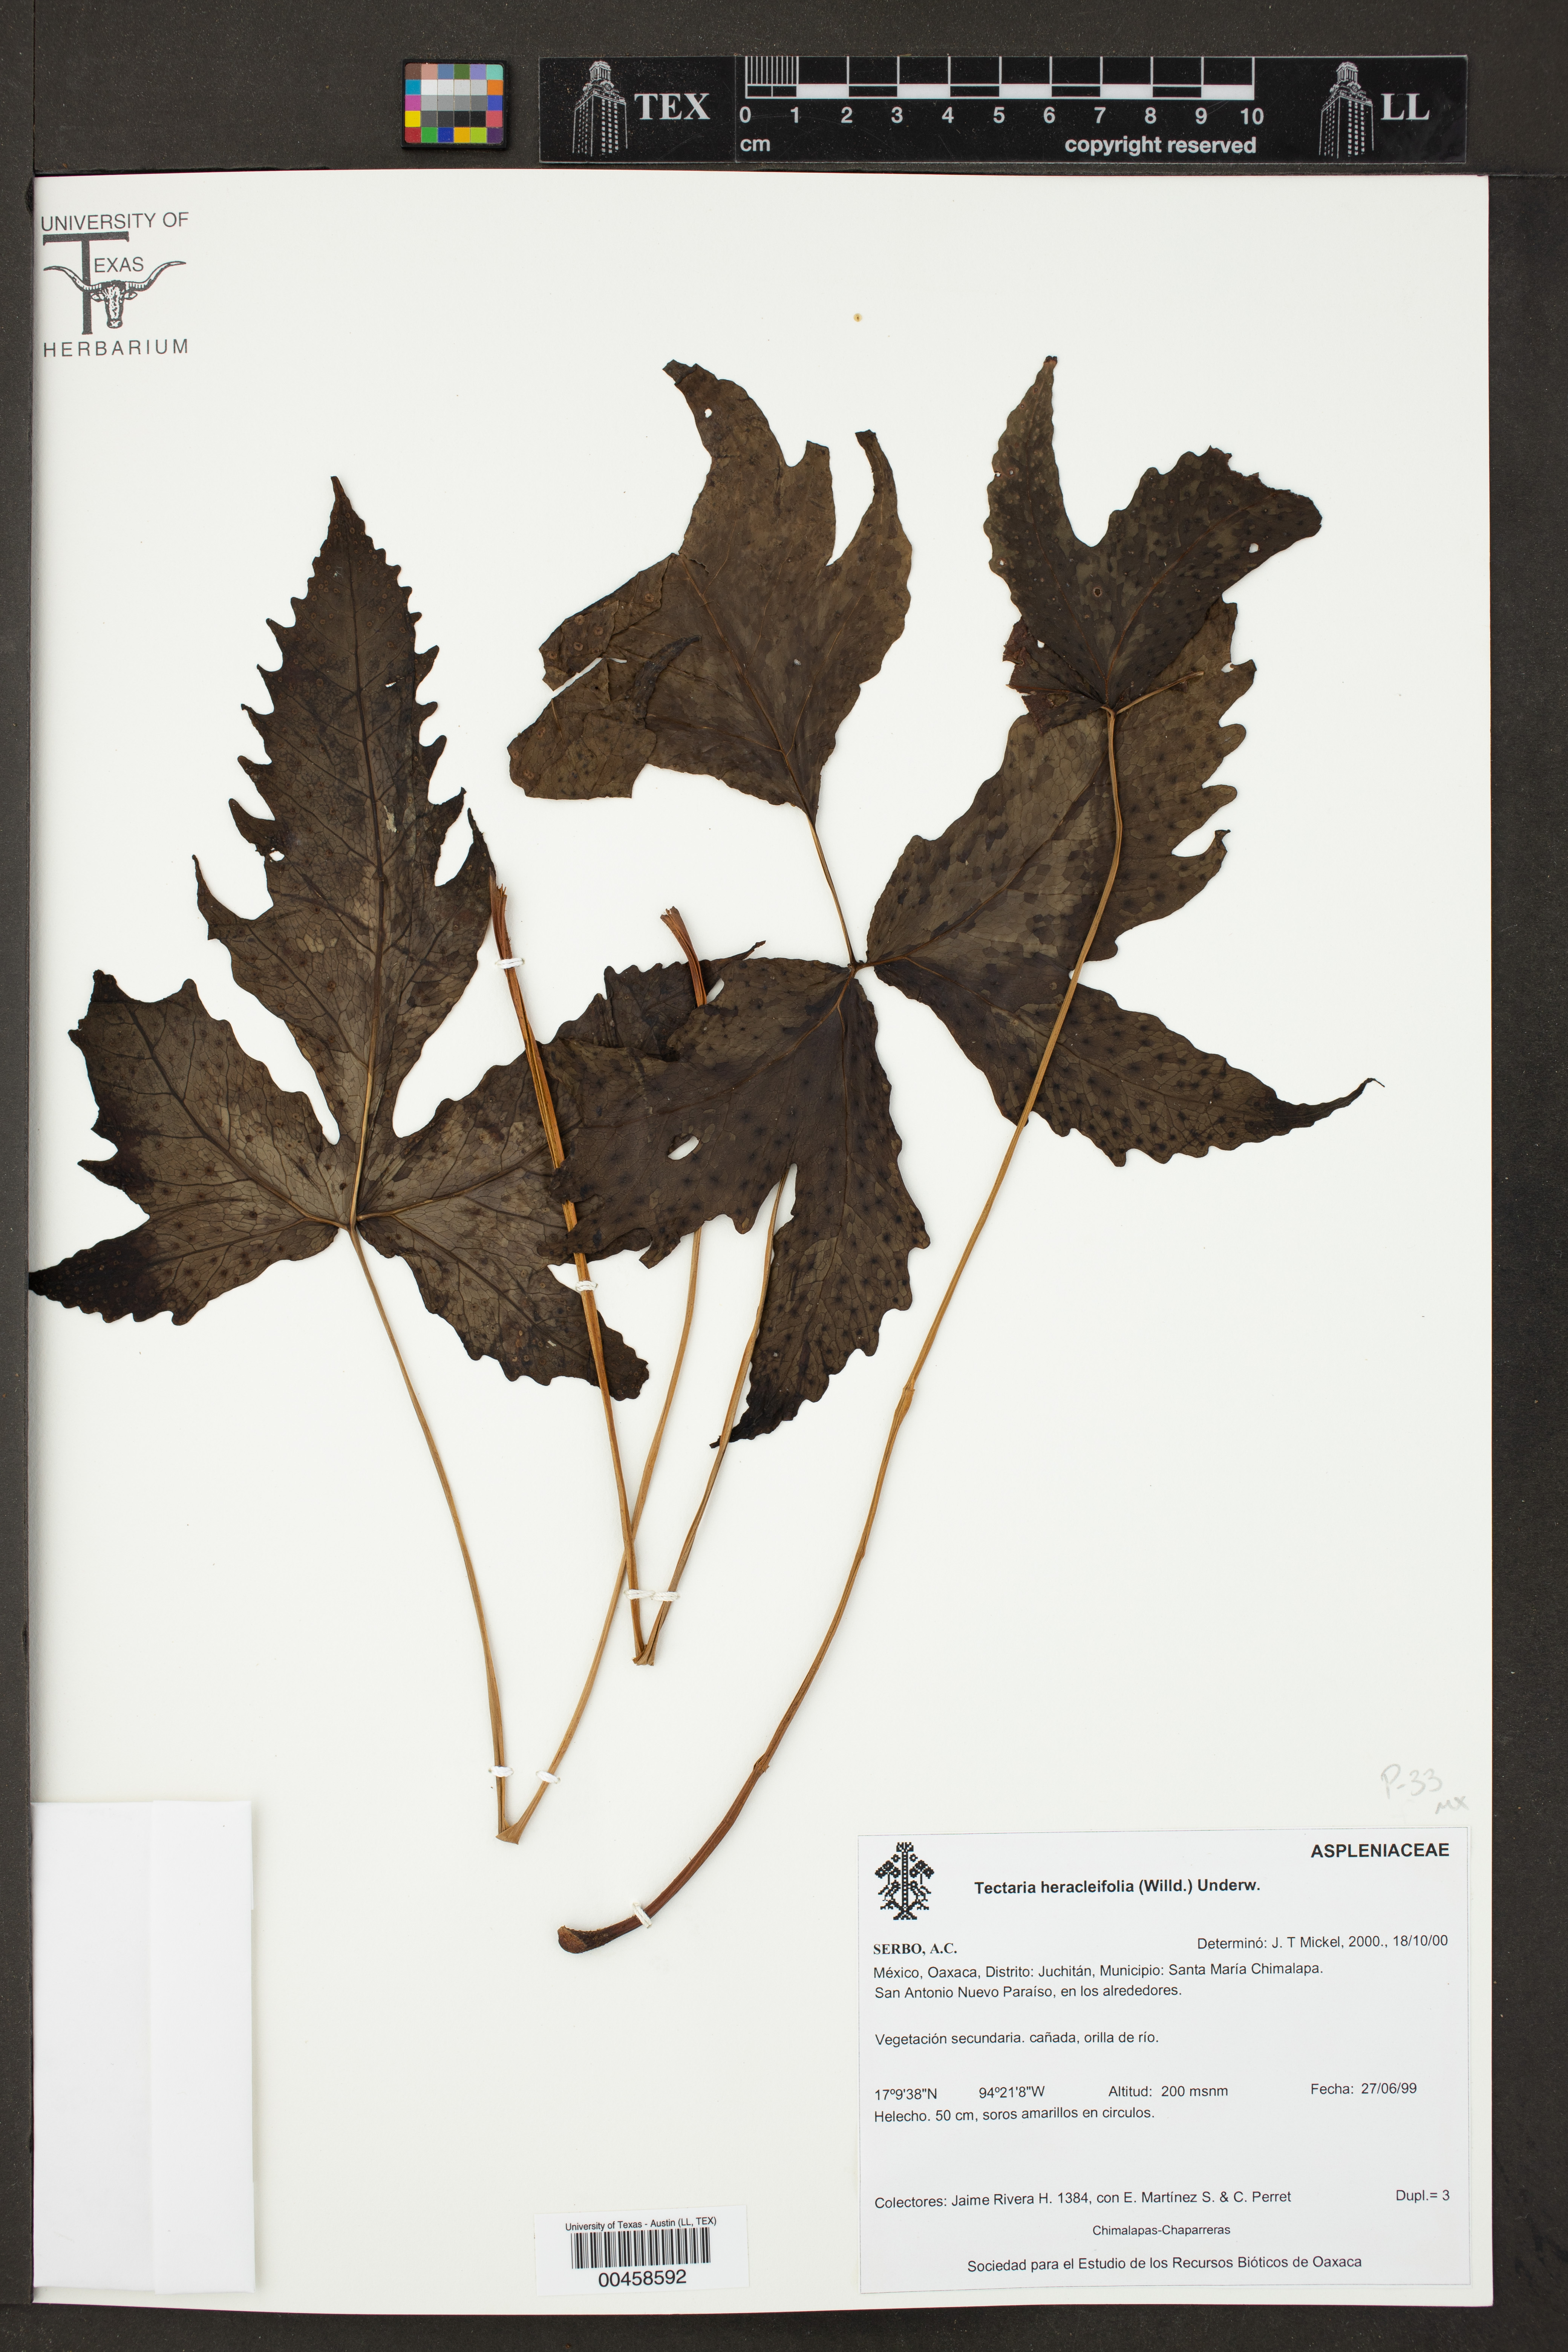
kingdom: Plantae
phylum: Tracheophyta
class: Polypodiopsida
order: Polypodiales
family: Tectariaceae
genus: Tectaria
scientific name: Tectaria heracleifolia
